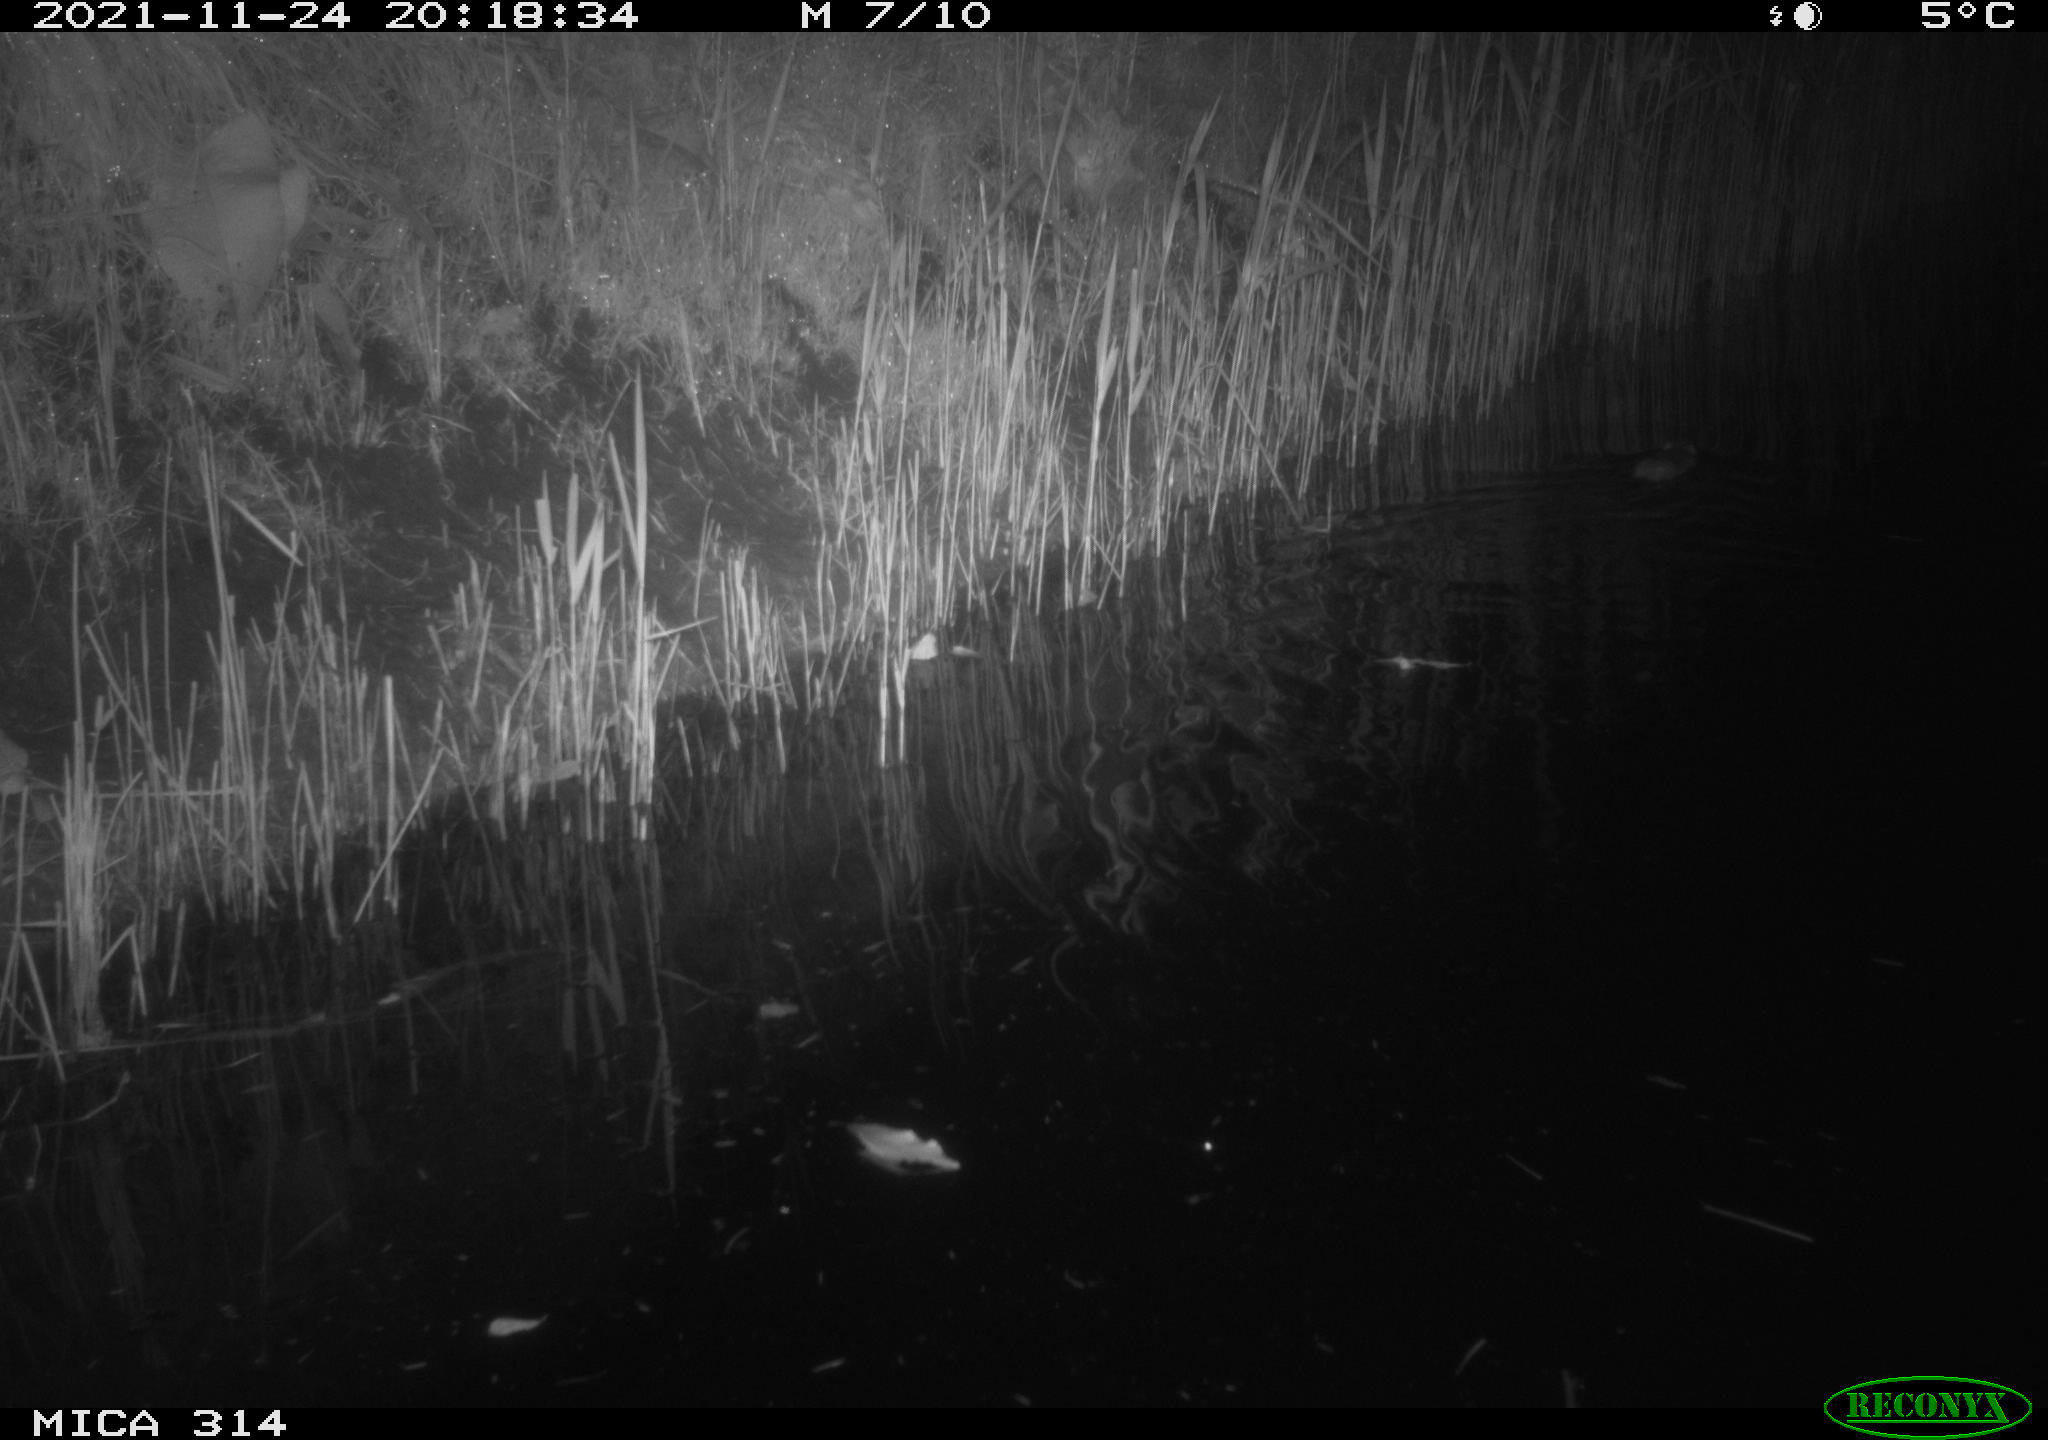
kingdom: Animalia
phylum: Chordata
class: Mammalia
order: Rodentia
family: Muridae
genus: Rattus
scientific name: Rattus norvegicus
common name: Brown rat
